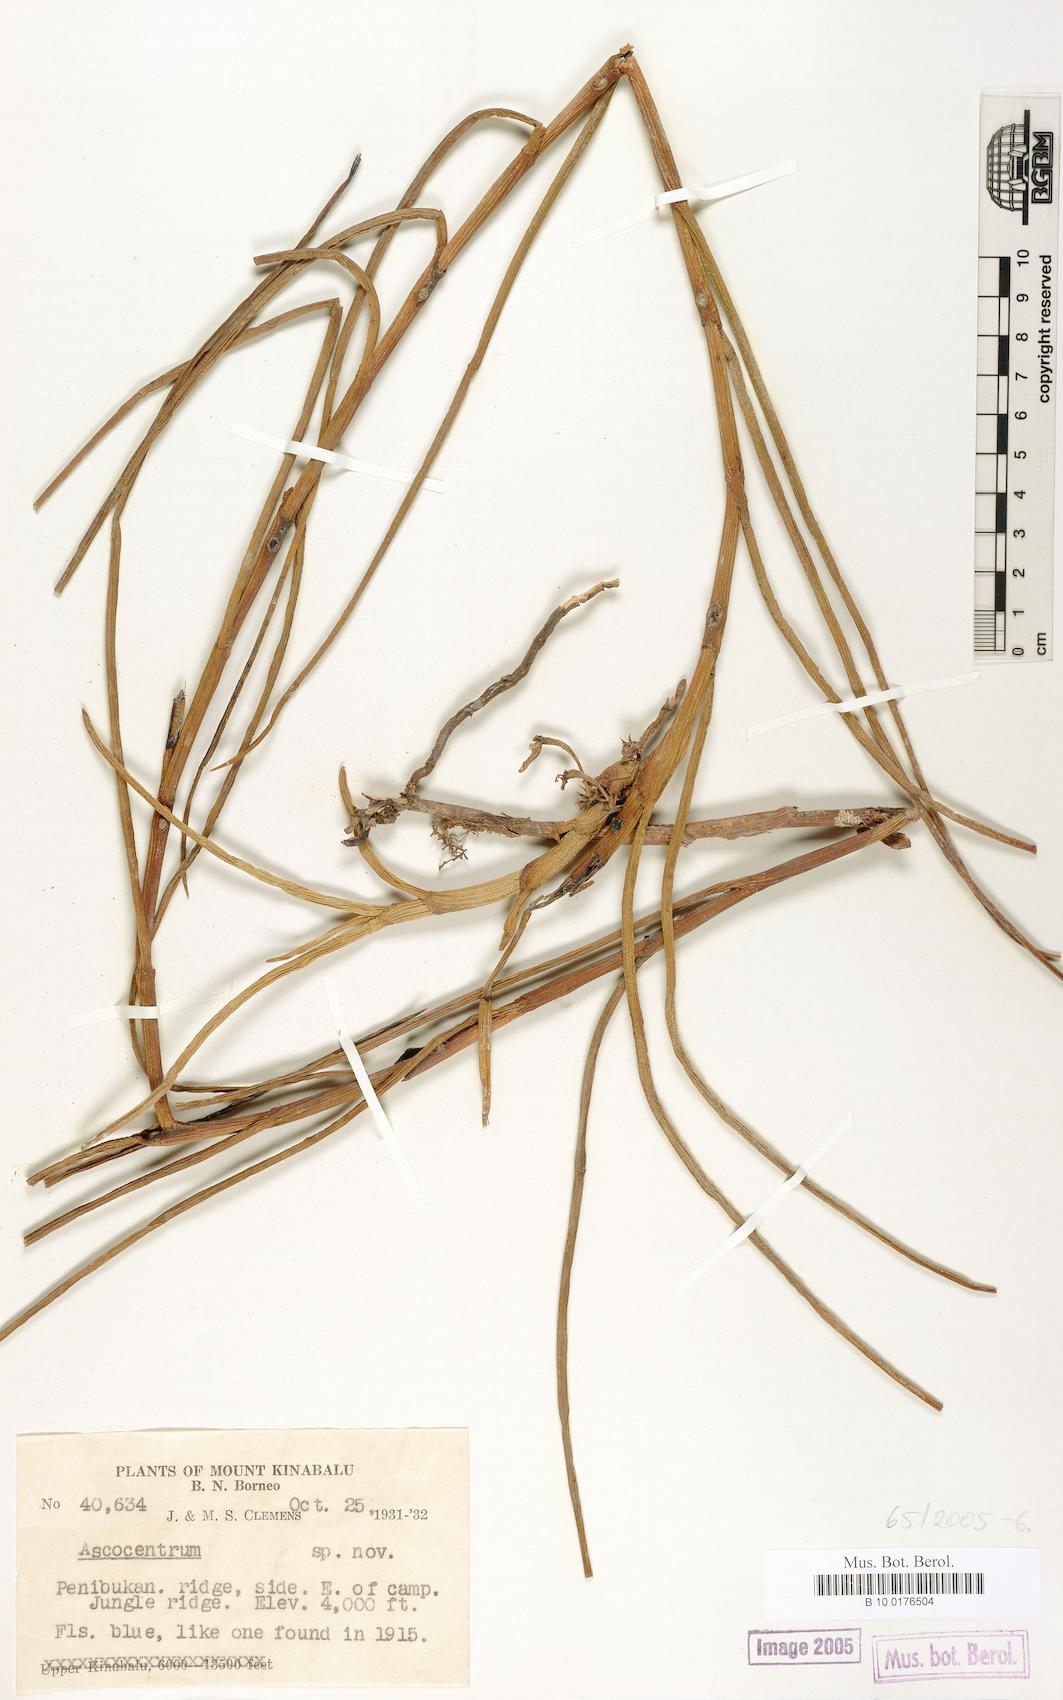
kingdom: Plantae
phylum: Tracheophyta
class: Liliopsida
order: Asparagales
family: Orchidaceae
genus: Ascocentrum
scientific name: Ascocentrum
